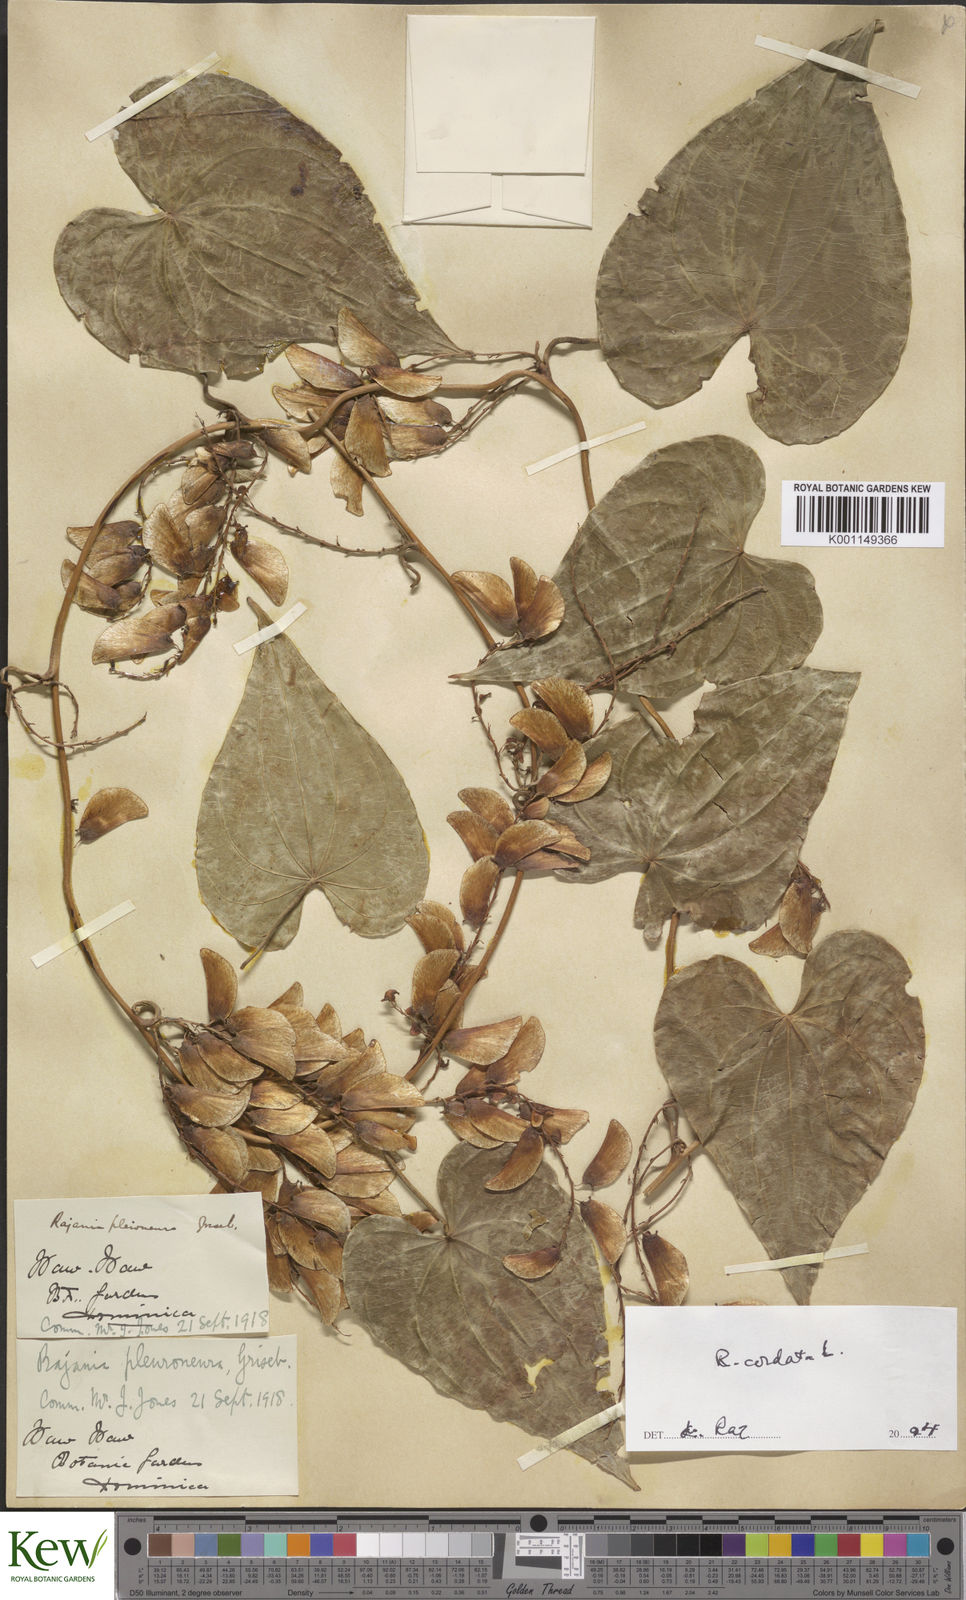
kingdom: Plantae
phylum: Tracheophyta
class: Liliopsida
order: Dioscoreales
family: Dioscoreaceae
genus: Dioscorea
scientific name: Dioscorea
